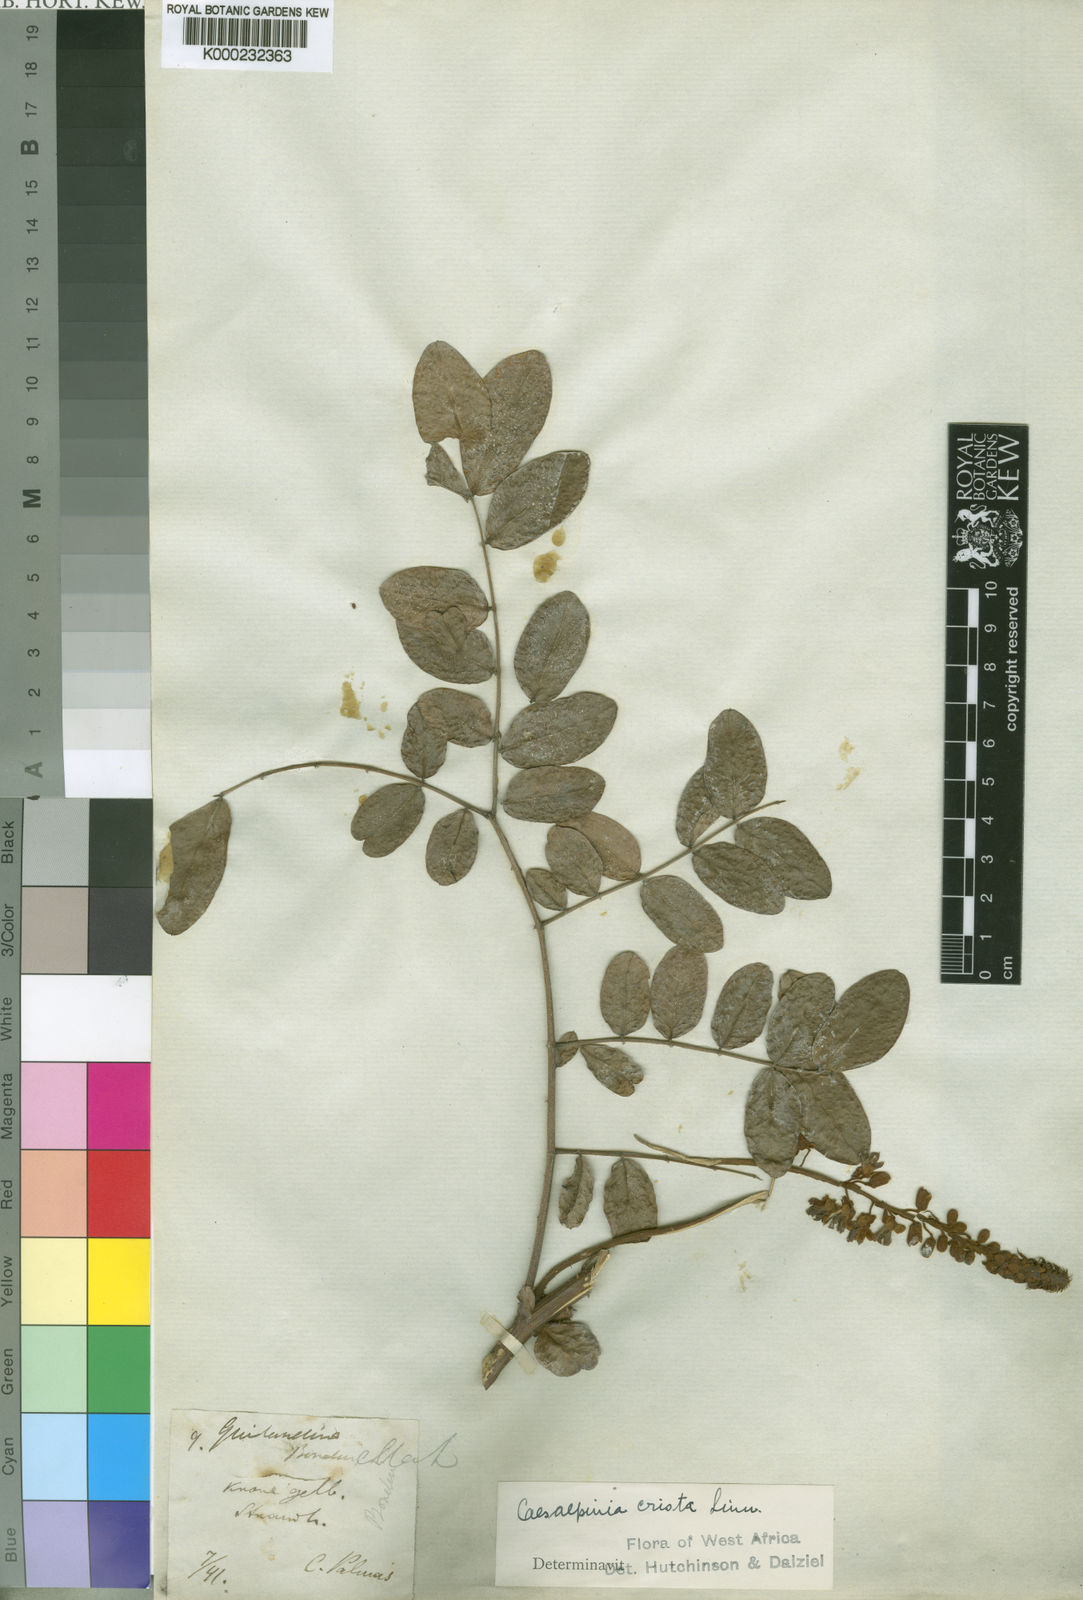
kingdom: Plantae
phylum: Tracheophyta
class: Magnoliopsida
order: Fabales
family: Fabaceae
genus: Guilandina
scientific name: Guilandina bonduc
